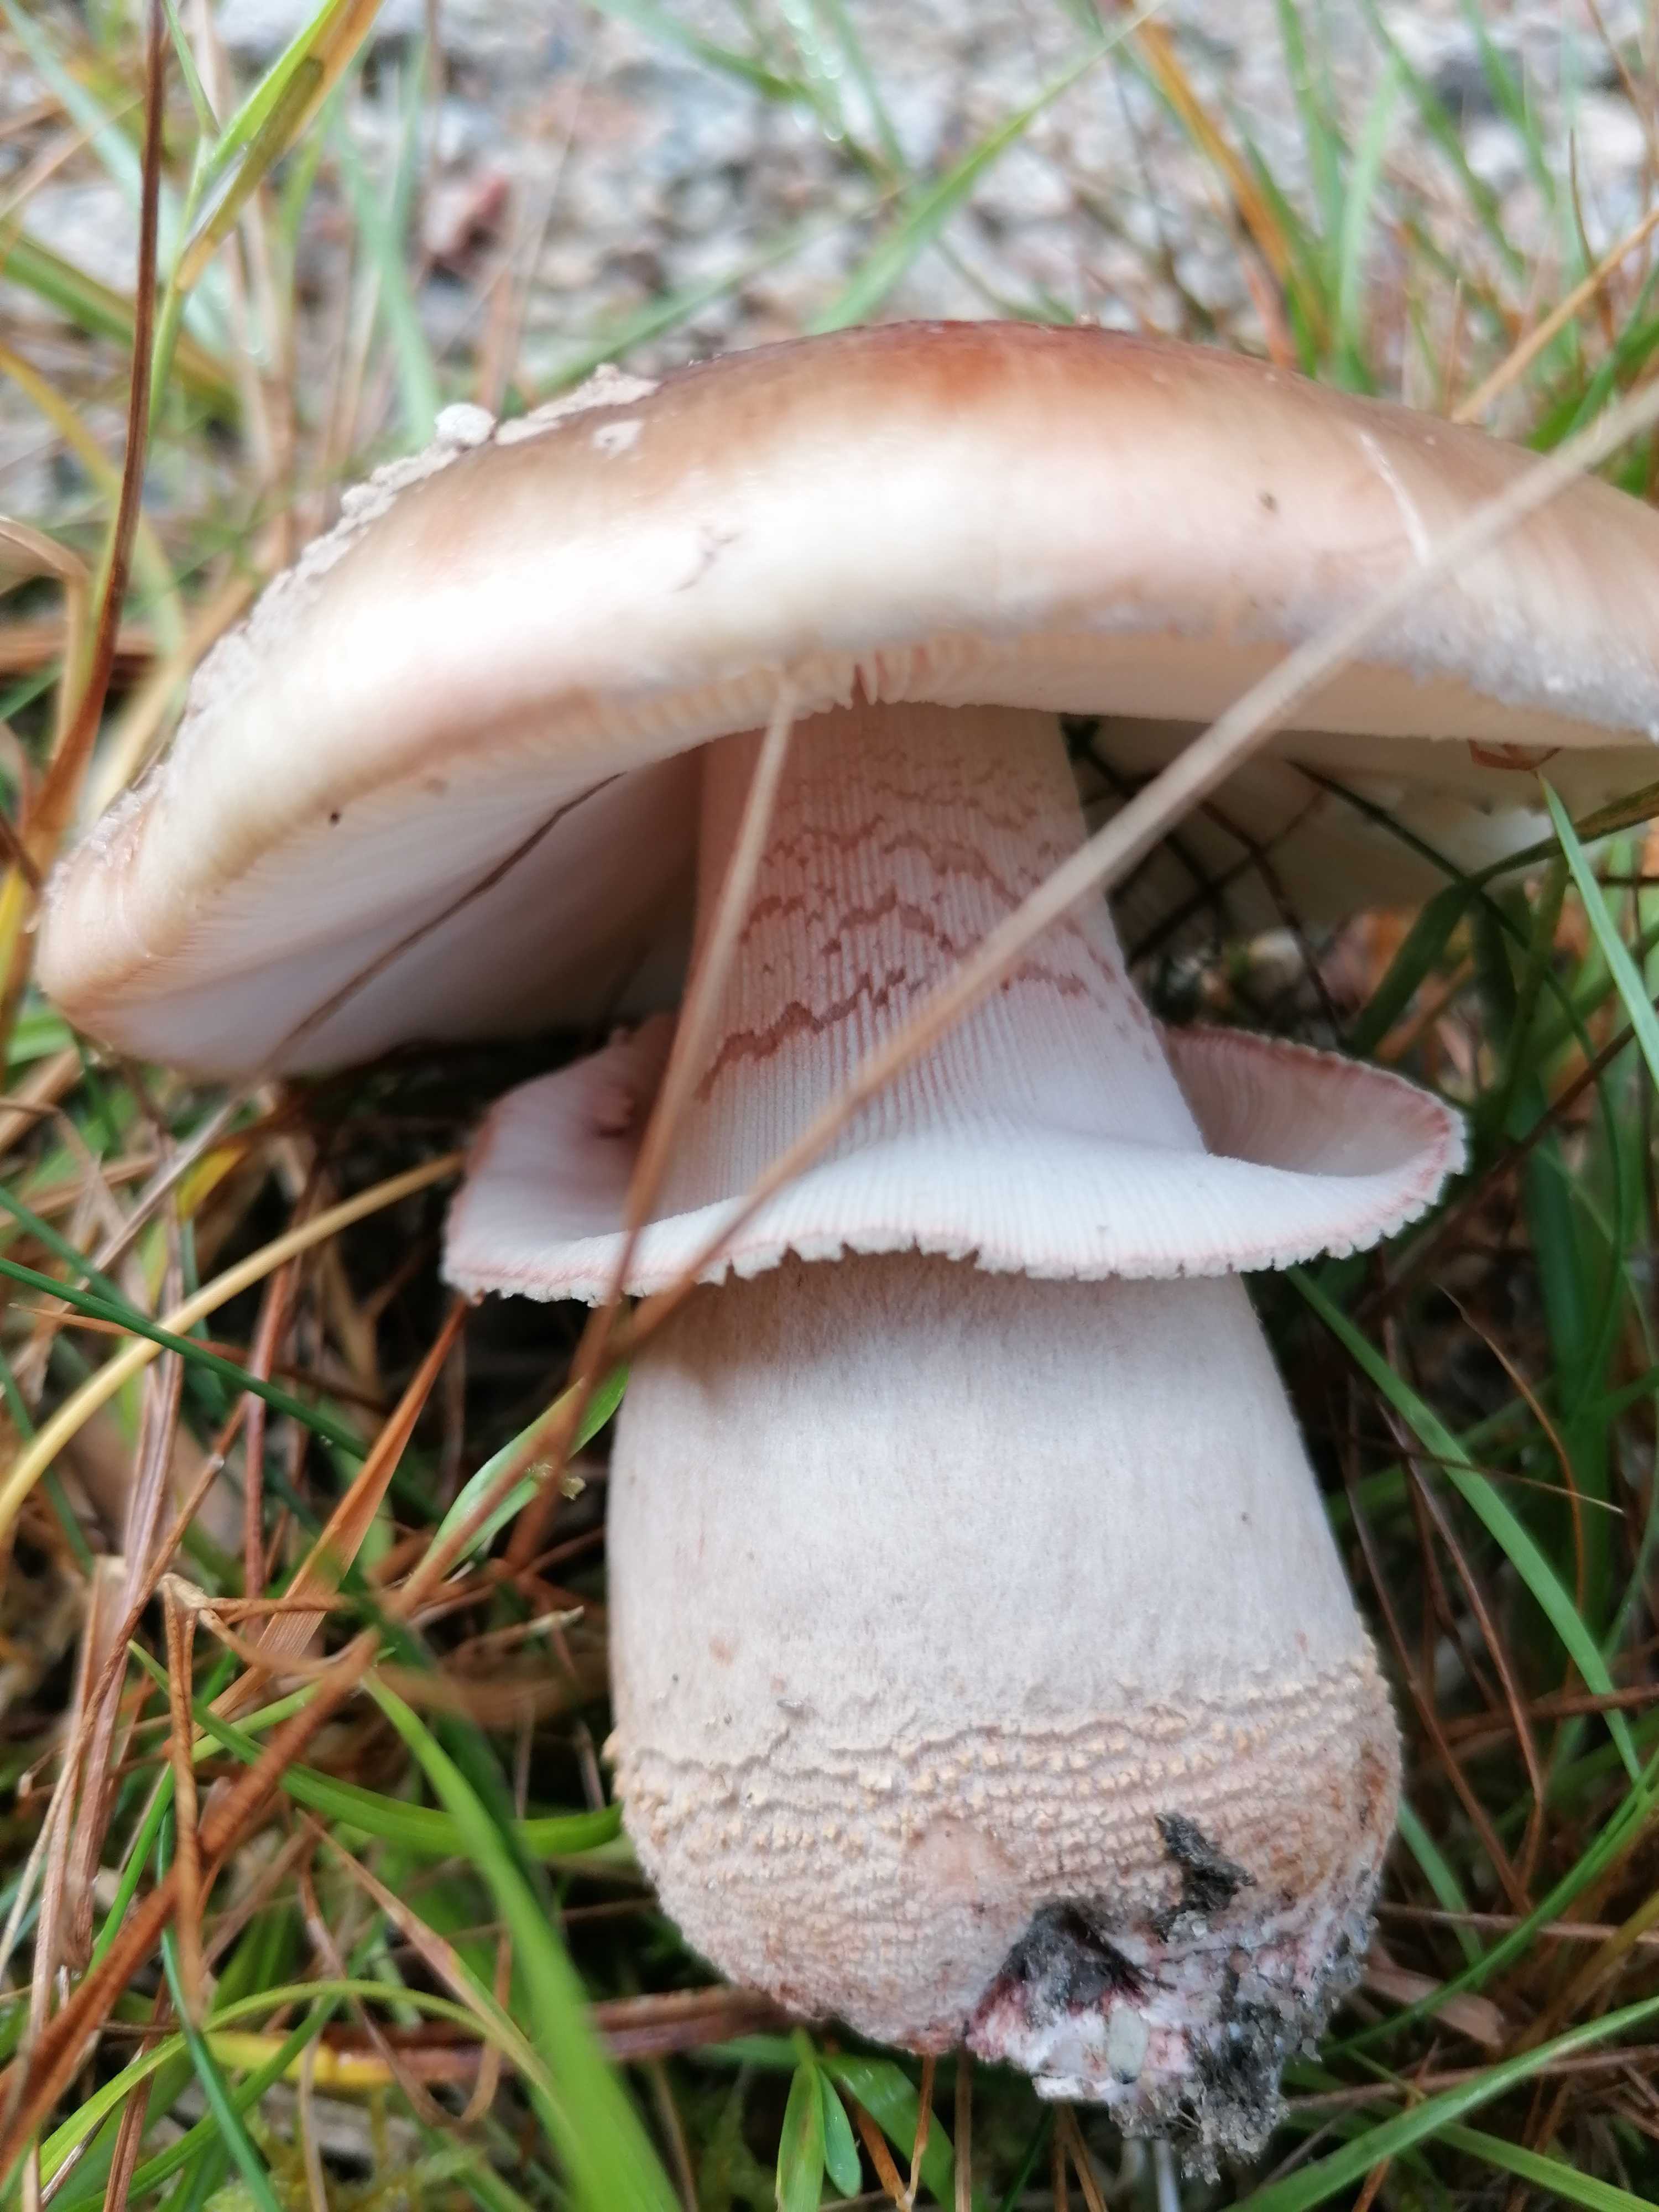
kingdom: Fungi
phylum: Basidiomycota
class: Agaricomycetes
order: Agaricales
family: Amanitaceae
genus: Amanita
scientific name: Amanita rubescens
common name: rødmende fluesvamp
